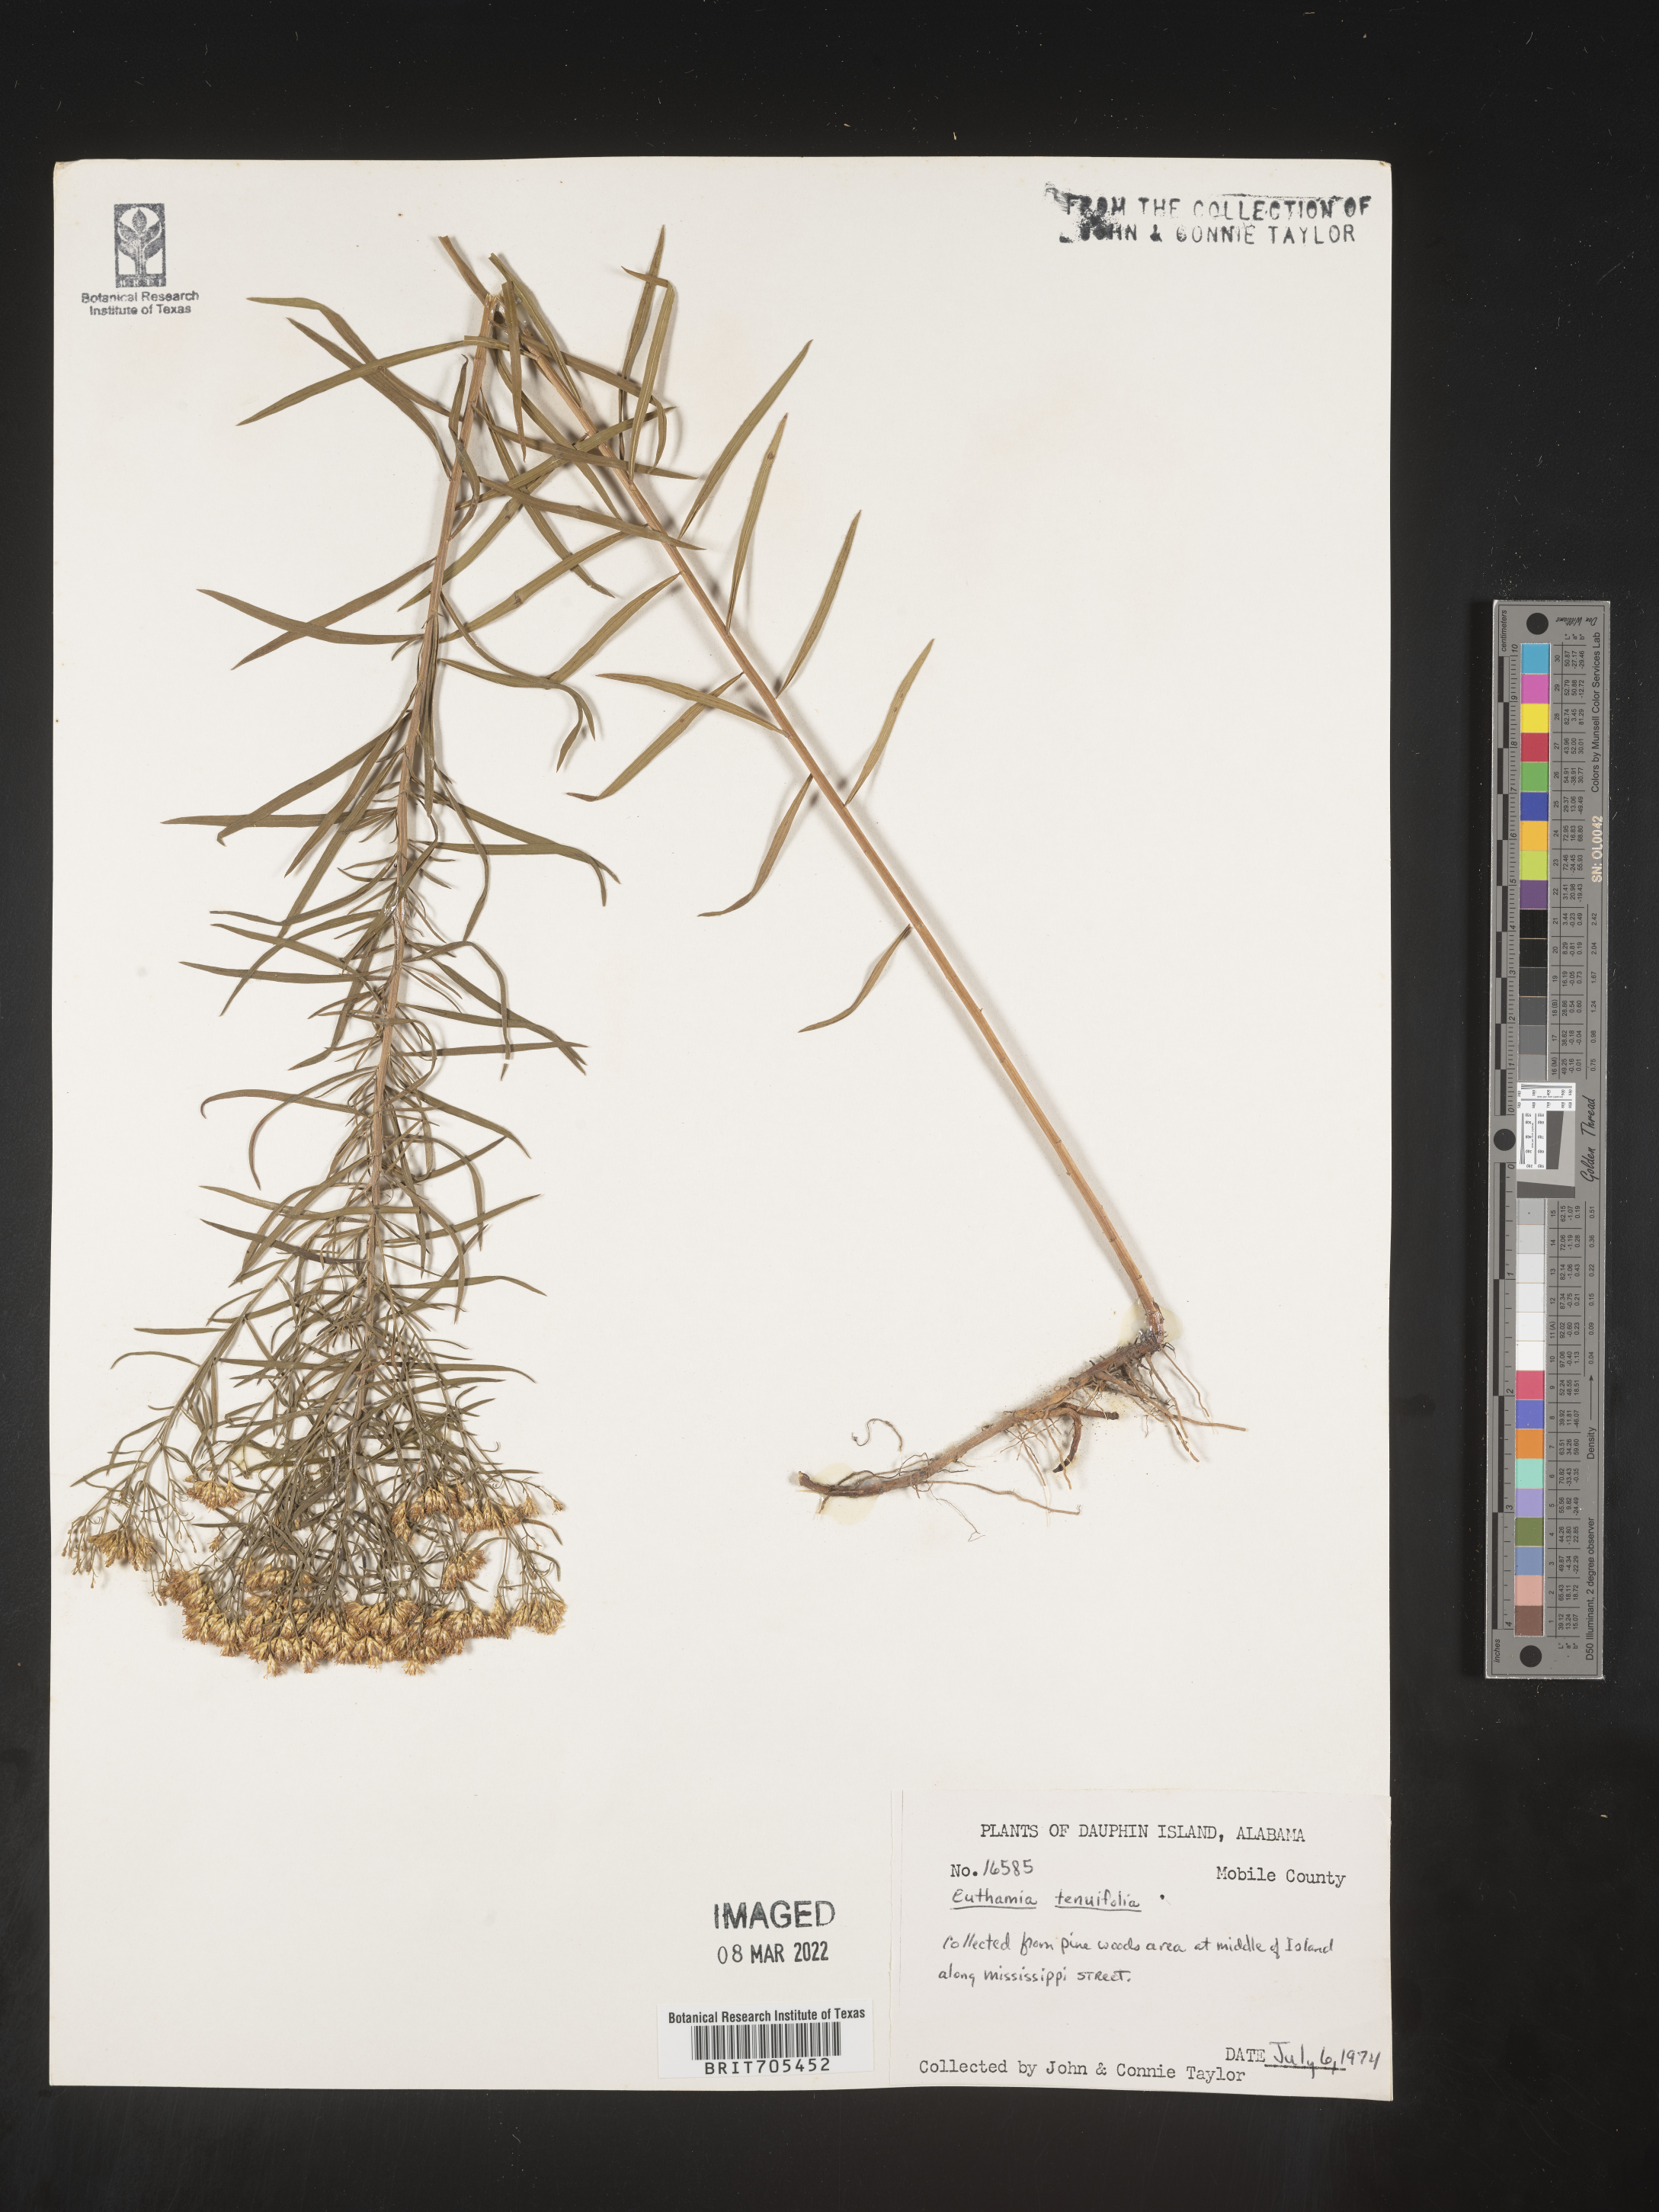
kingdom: Plantae
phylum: Tracheophyta
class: Magnoliopsida
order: Asterales
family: Asteraceae
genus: Euthamia
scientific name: Euthamia scabra
